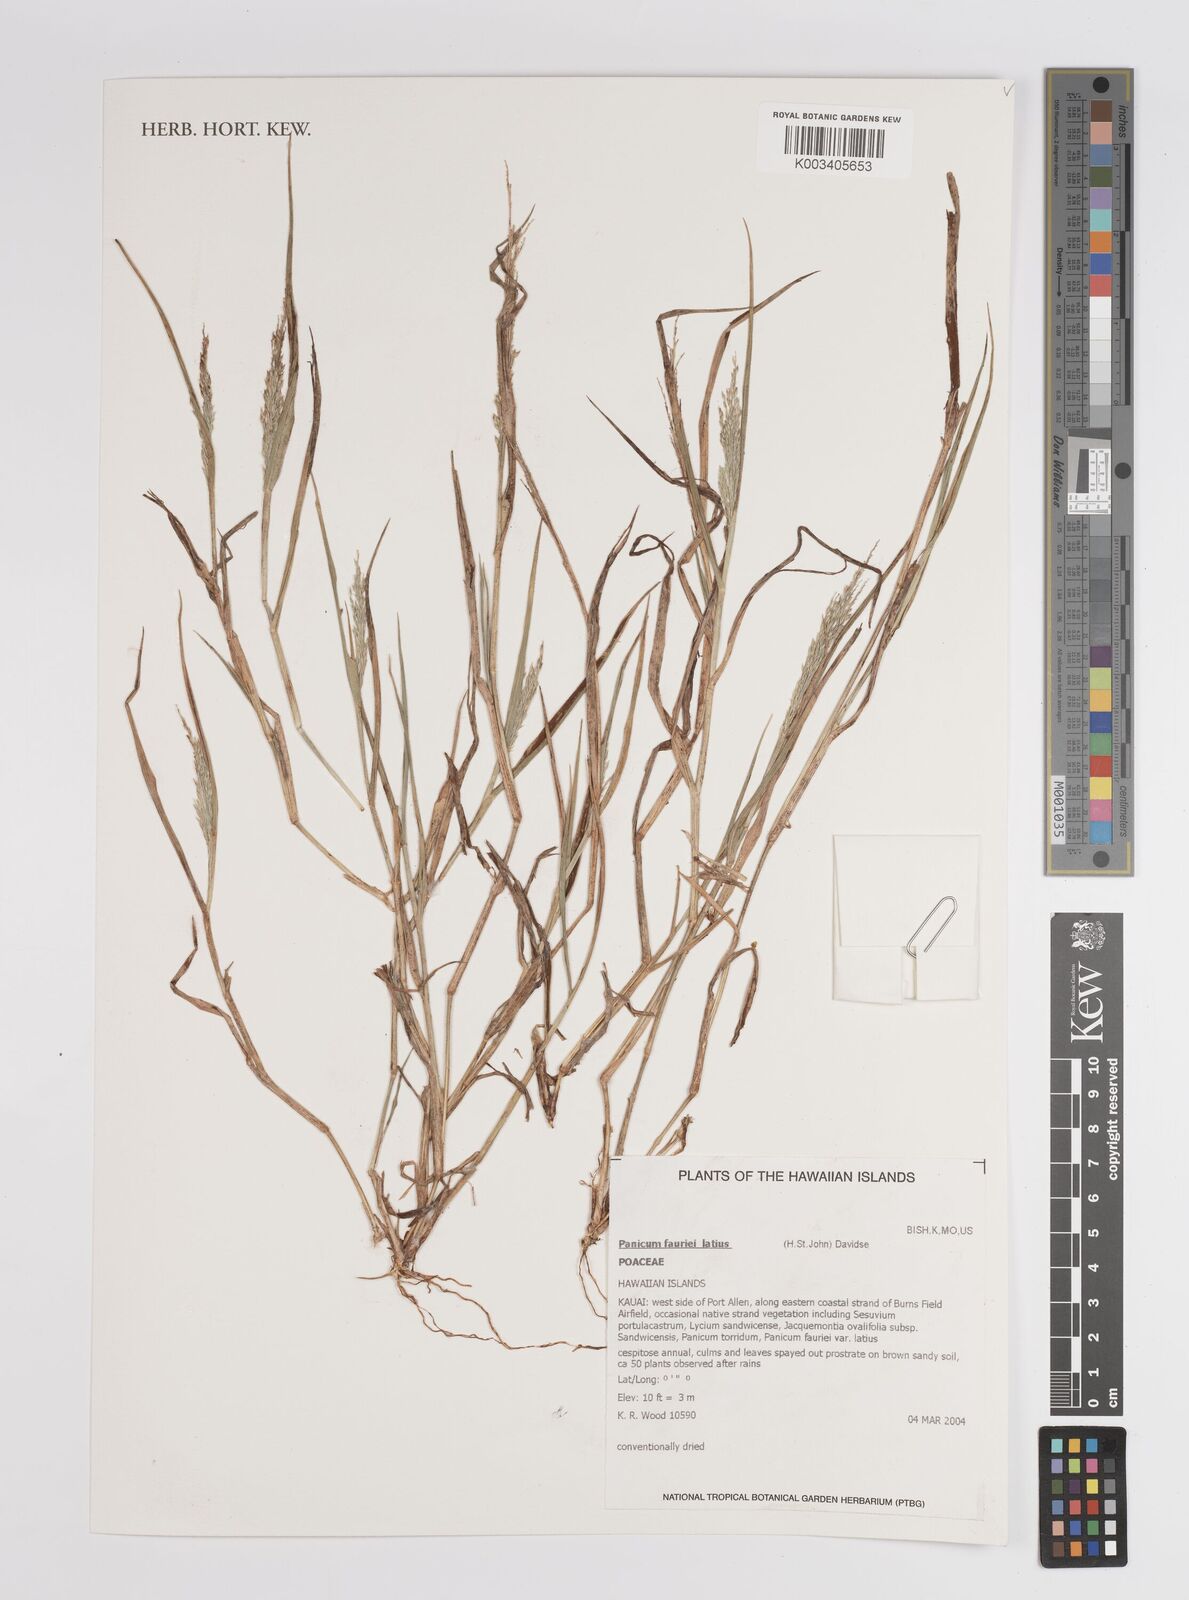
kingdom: Plantae
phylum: Tracheophyta
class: Liliopsida
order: Poales
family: Poaceae
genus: Panicum
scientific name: Panicum fauriei
